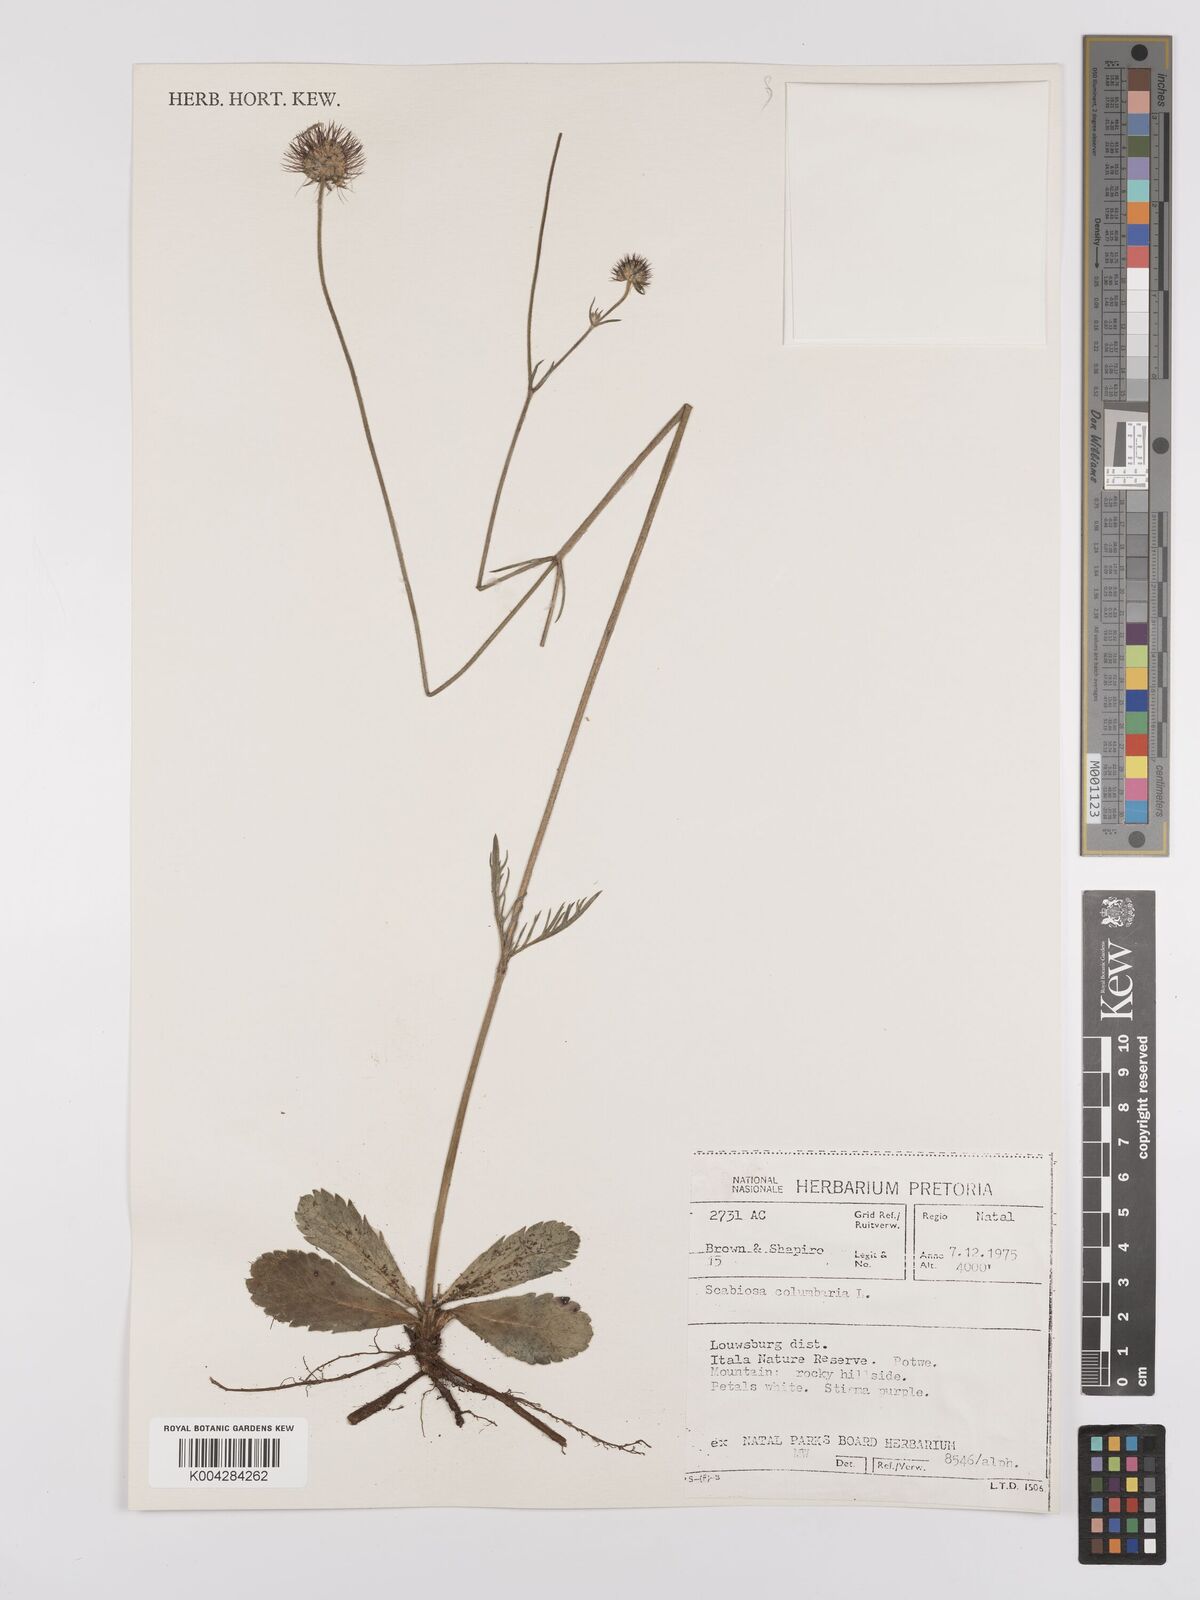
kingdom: Plantae
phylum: Tracheophyta
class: Magnoliopsida
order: Dipsacales
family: Caprifoliaceae
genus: Scabiosa
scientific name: Scabiosa columbaria
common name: Small scabious
